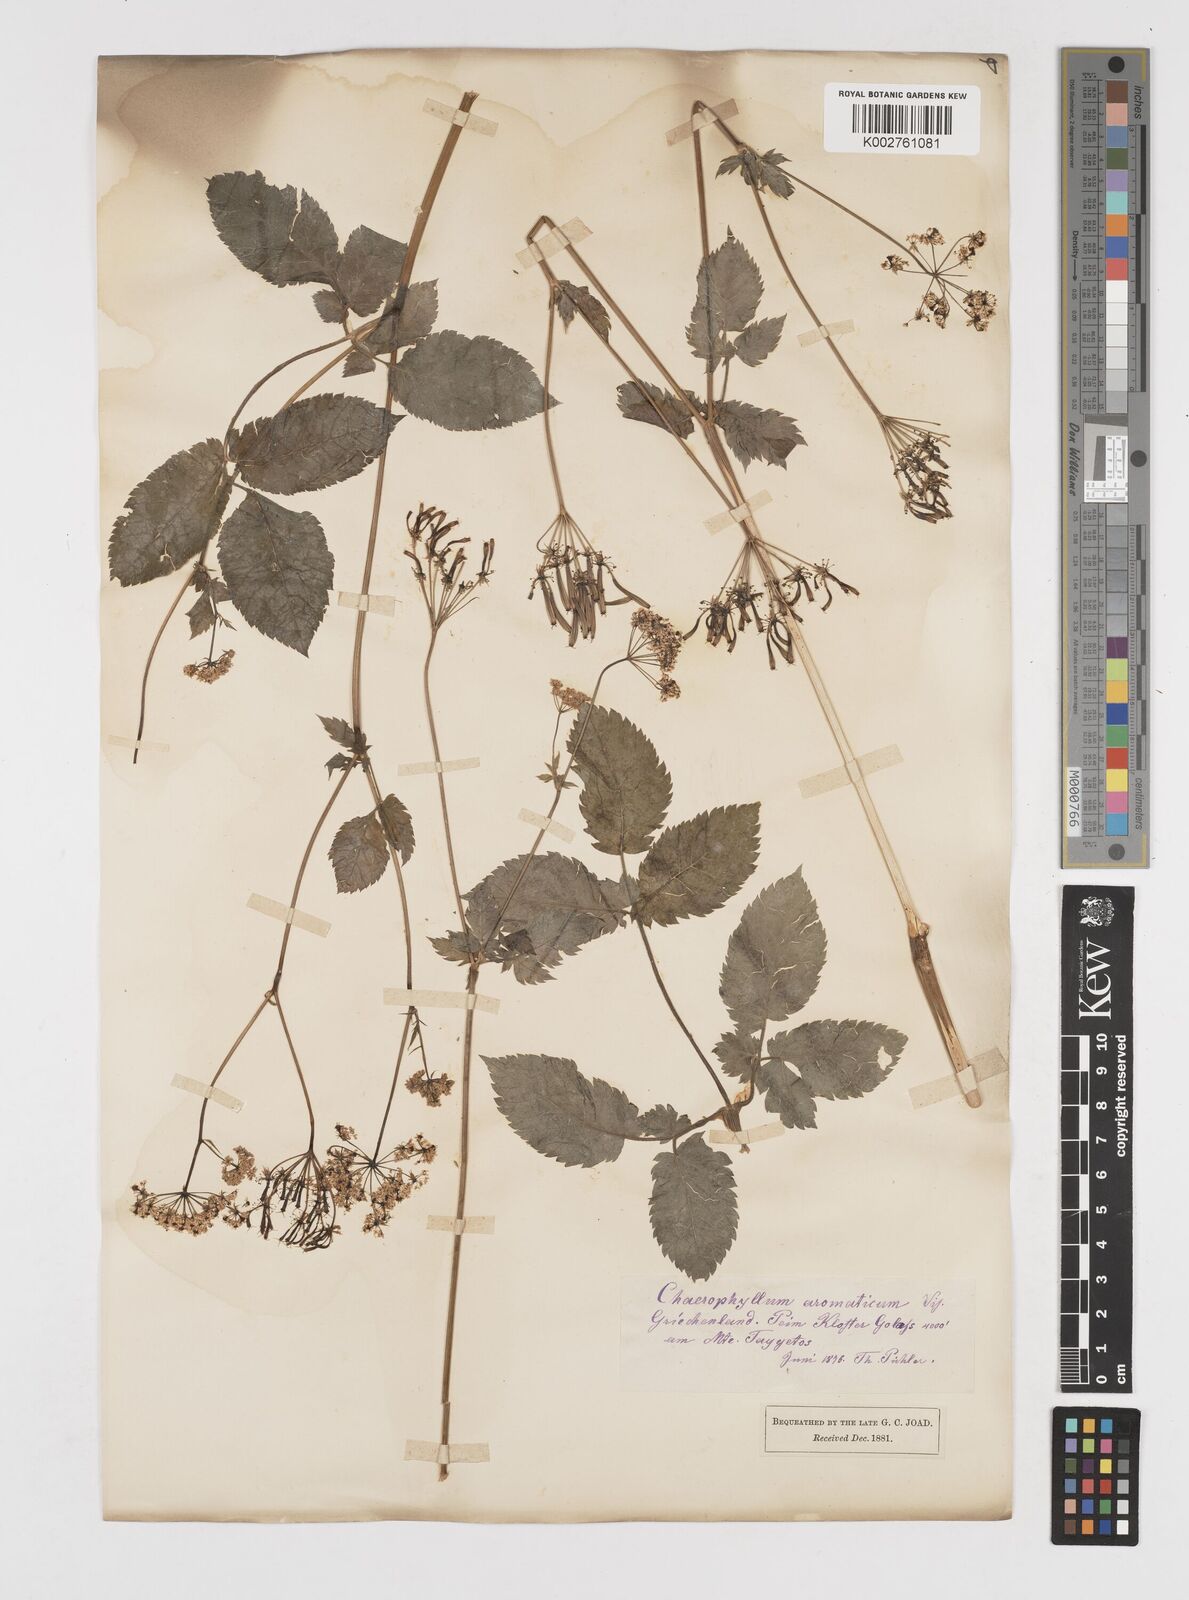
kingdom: Plantae
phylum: Tracheophyta
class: Magnoliopsida
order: Apiales
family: Apiaceae
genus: Chaerophyllum
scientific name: Chaerophyllum aromaticum
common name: Broadleaf chervil
